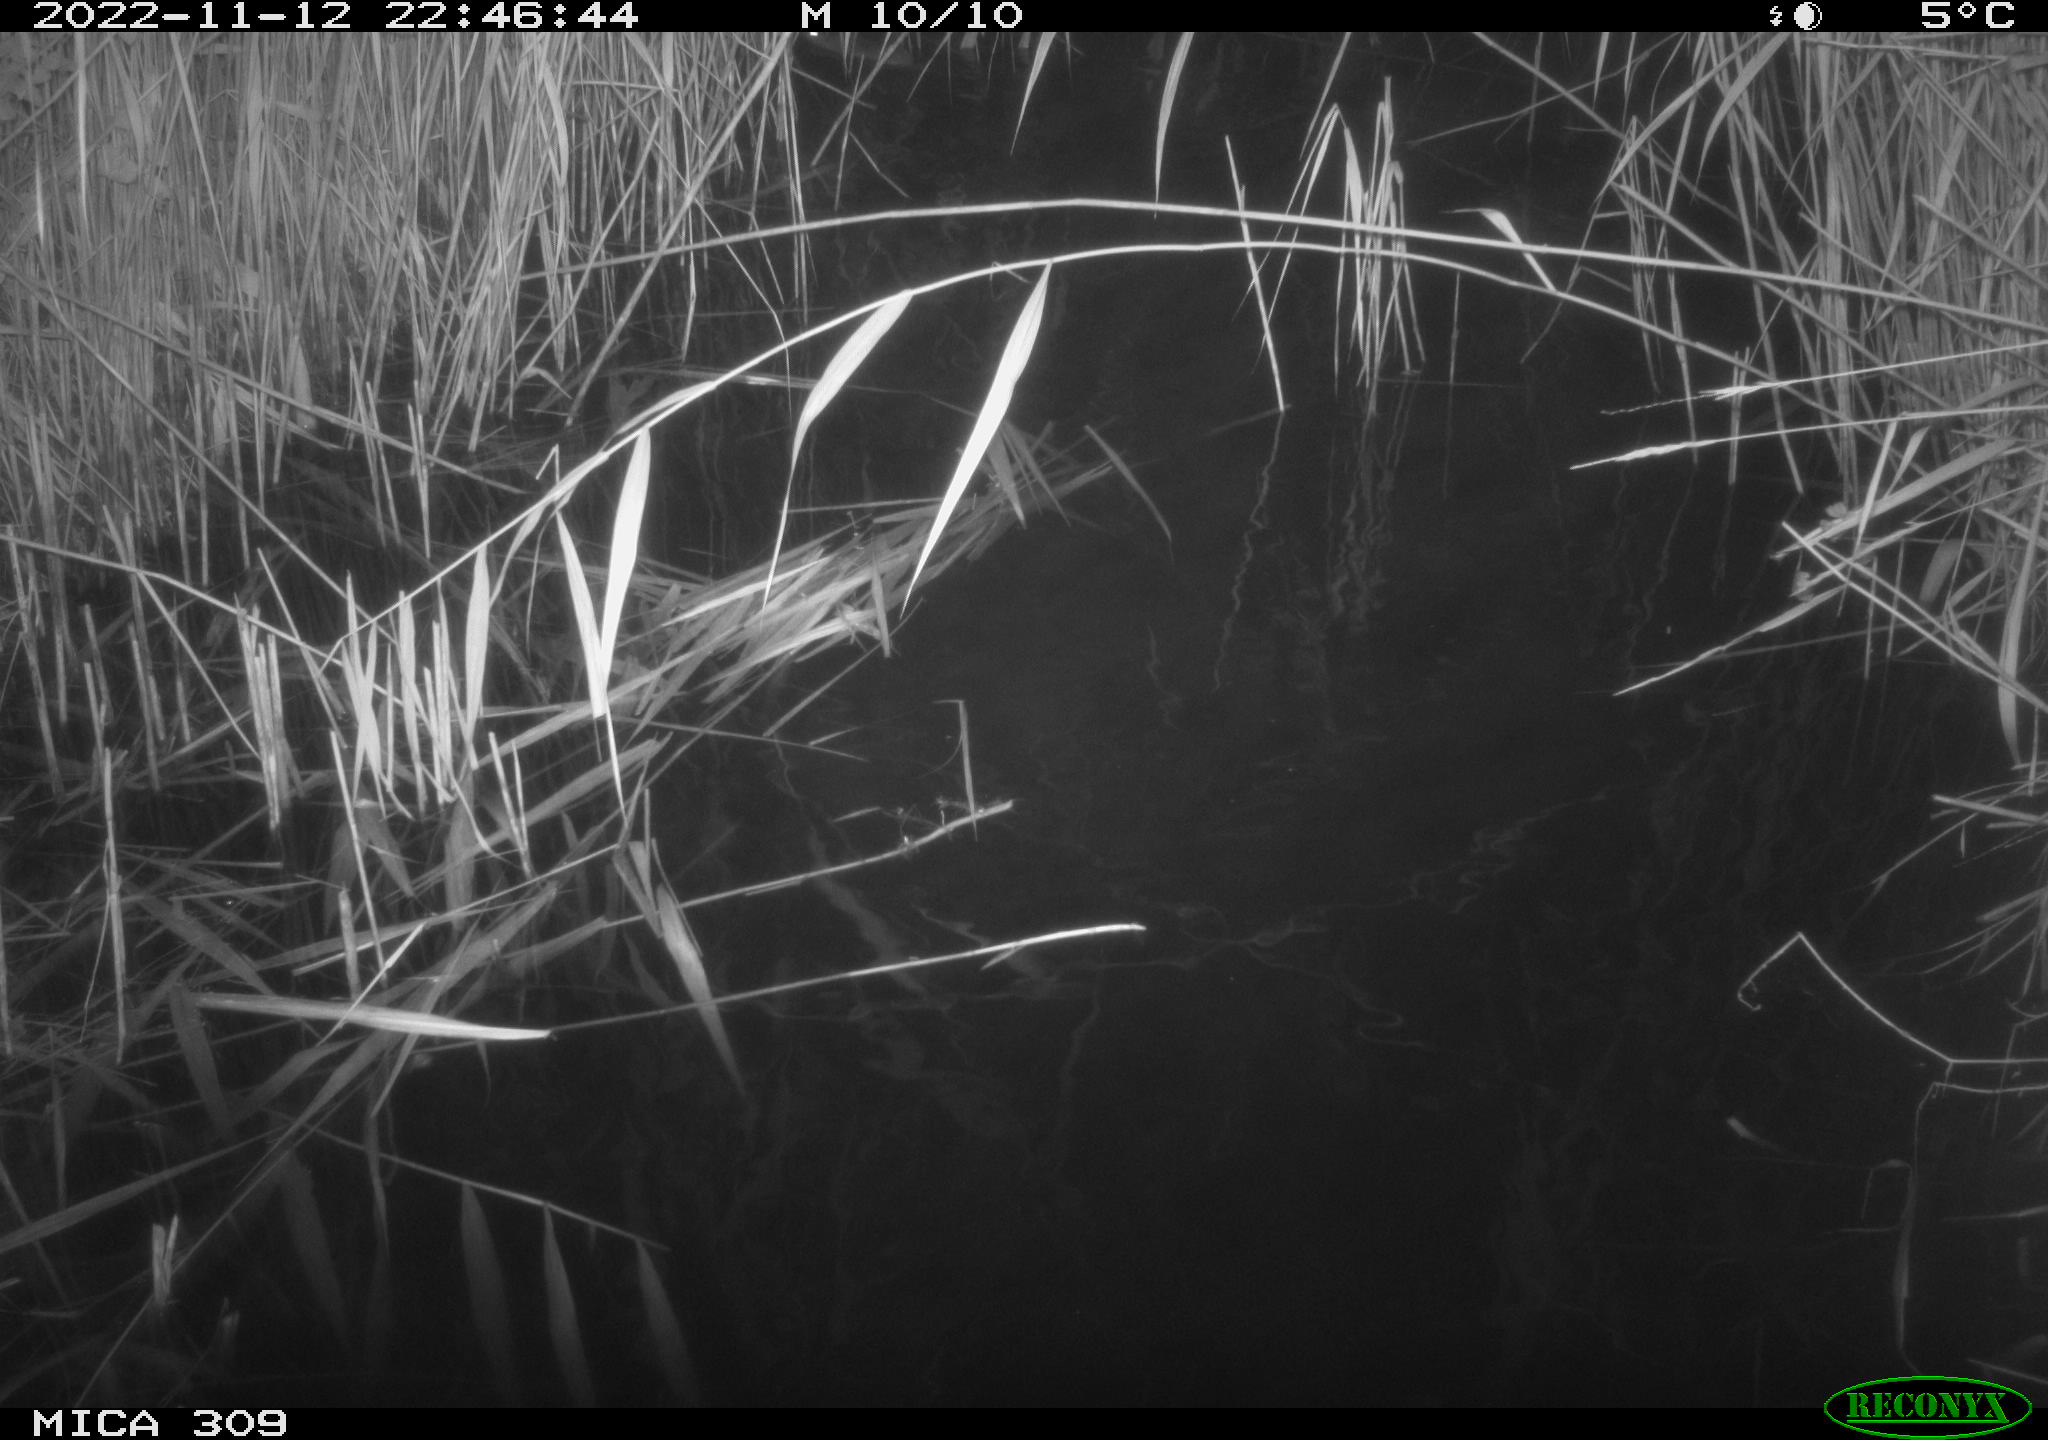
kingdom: Animalia
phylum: Chordata
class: Mammalia
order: Rodentia
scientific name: Rodentia
